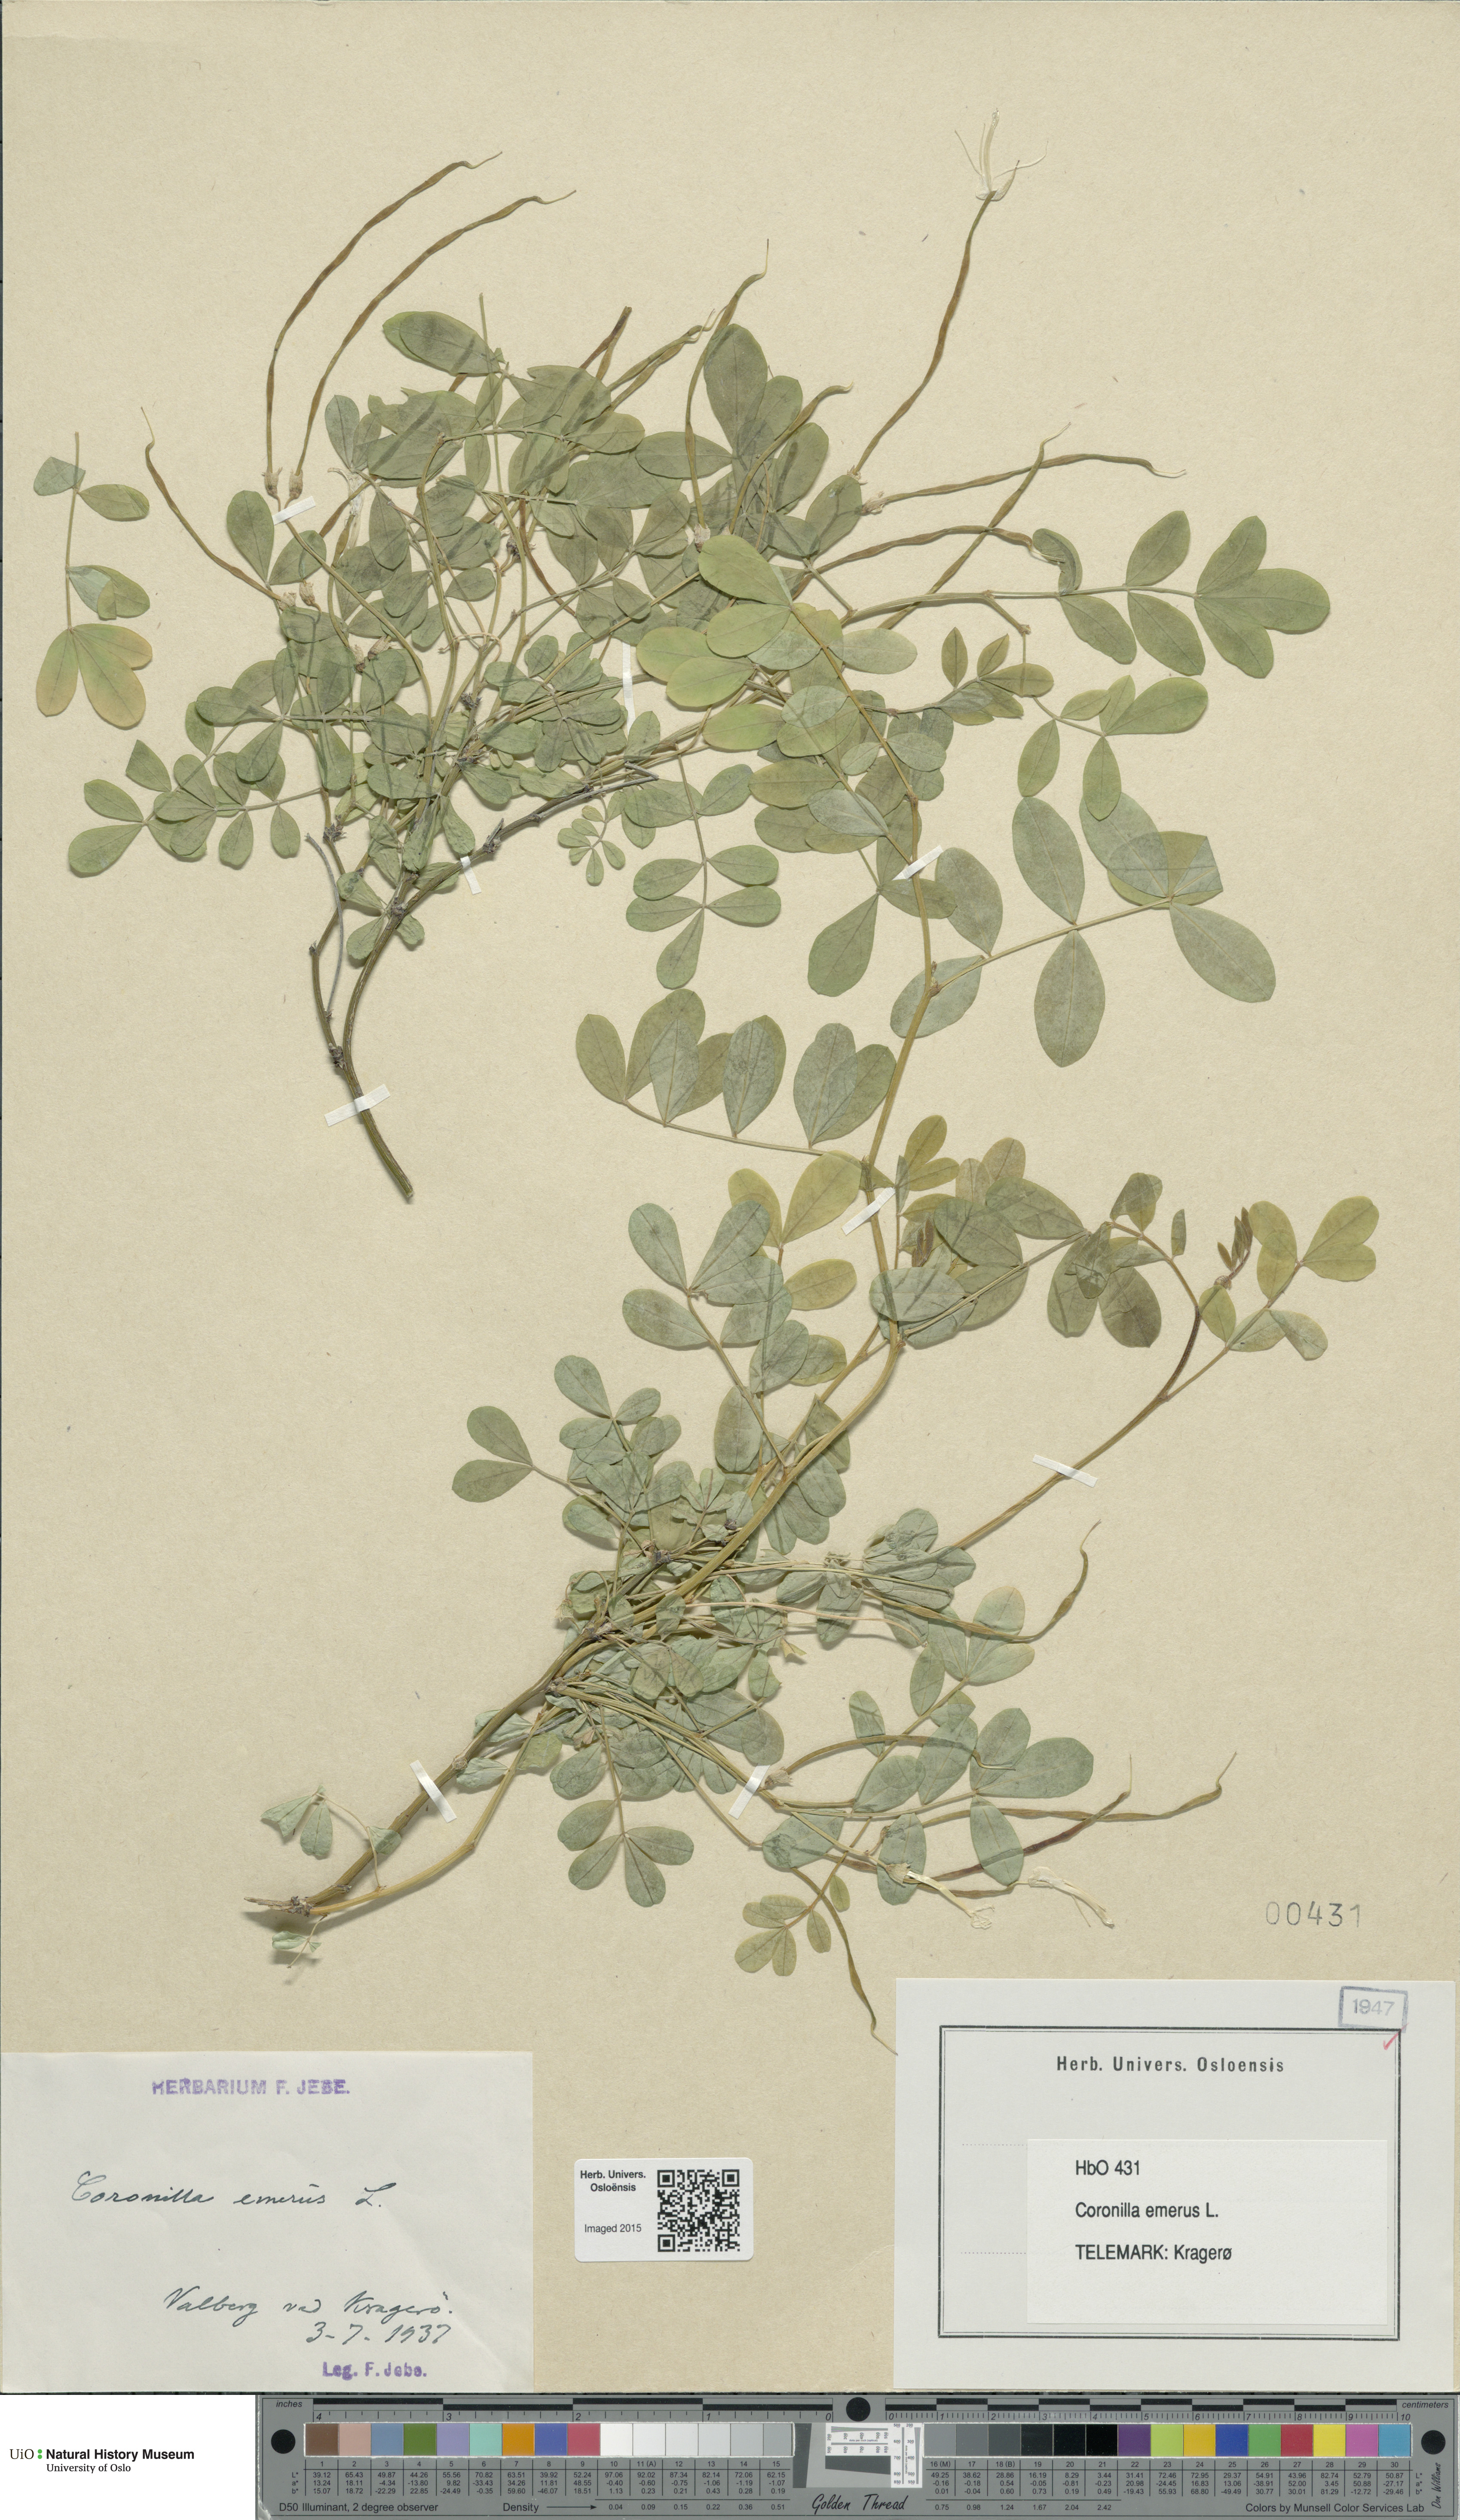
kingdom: Plantae
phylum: Tracheophyta
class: Magnoliopsida
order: Fabales
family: Fabaceae
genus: Hippocrepis
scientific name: Hippocrepis emerus
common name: Scorpion senna
